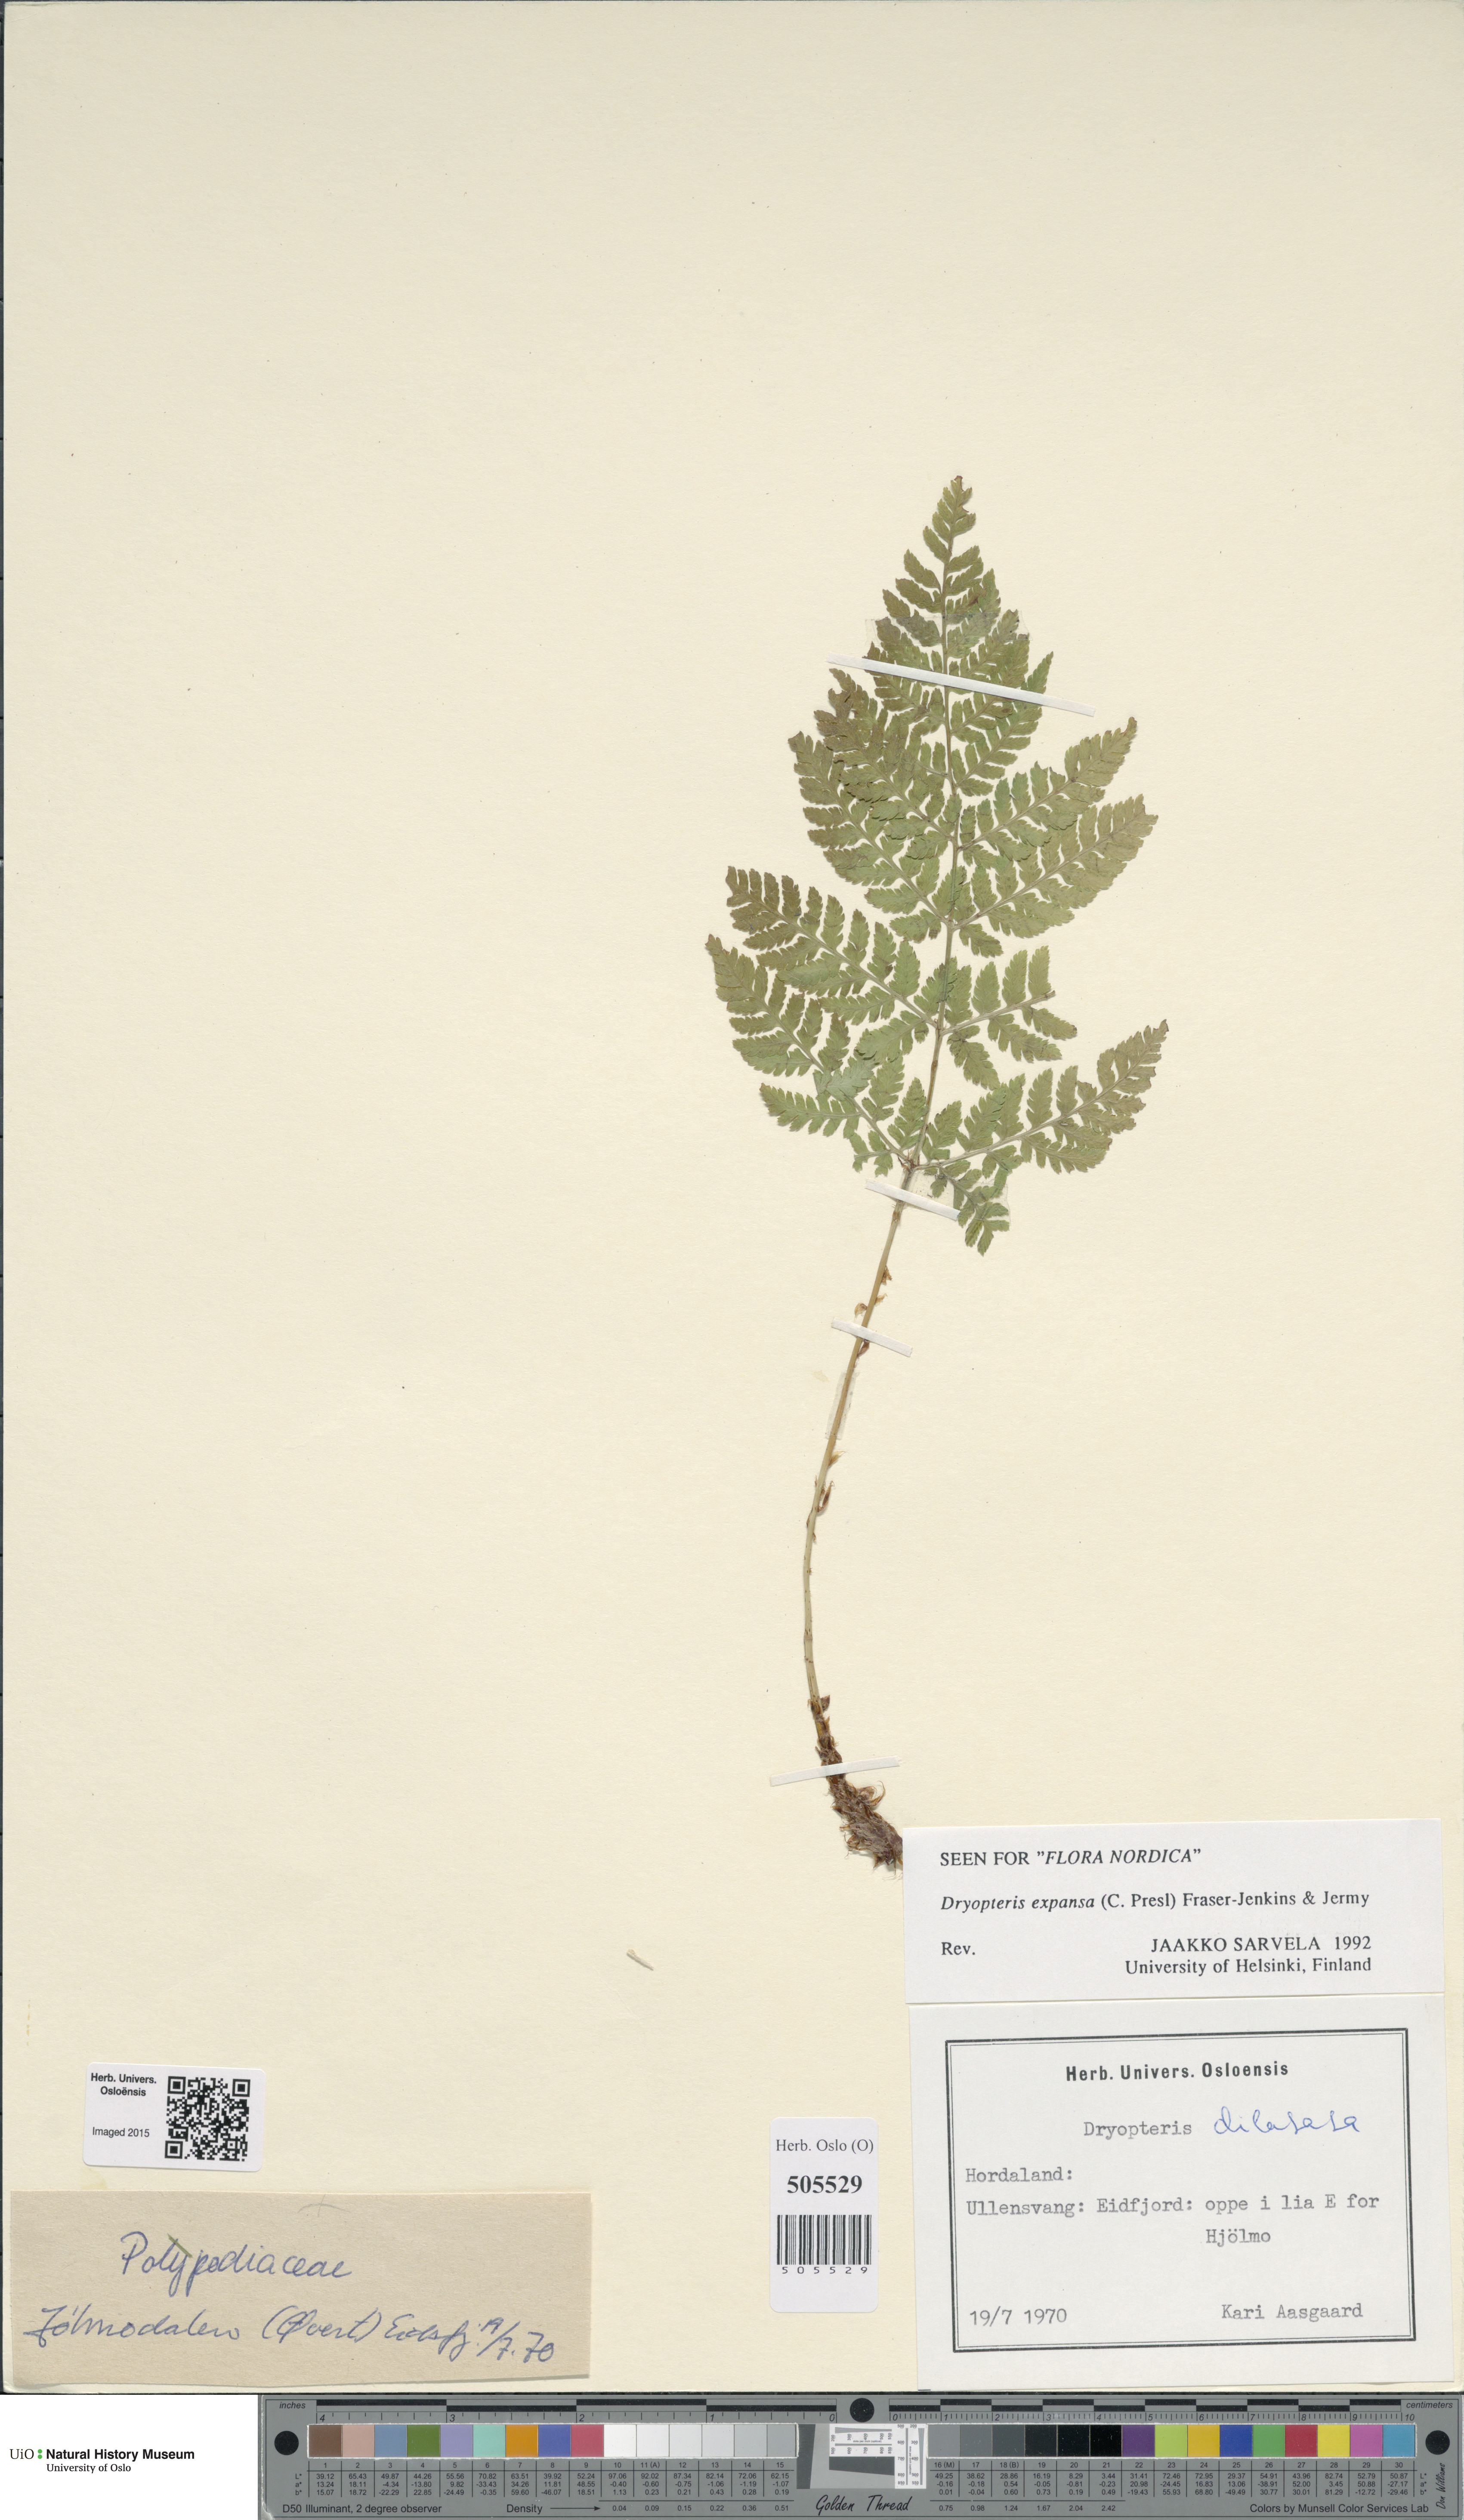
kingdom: Plantae
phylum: Tracheophyta
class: Polypodiopsida
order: Polypodiales
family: Dryopteridaceae
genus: Dryopteris
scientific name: Dryopteris expansa
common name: Northern buckler fern
